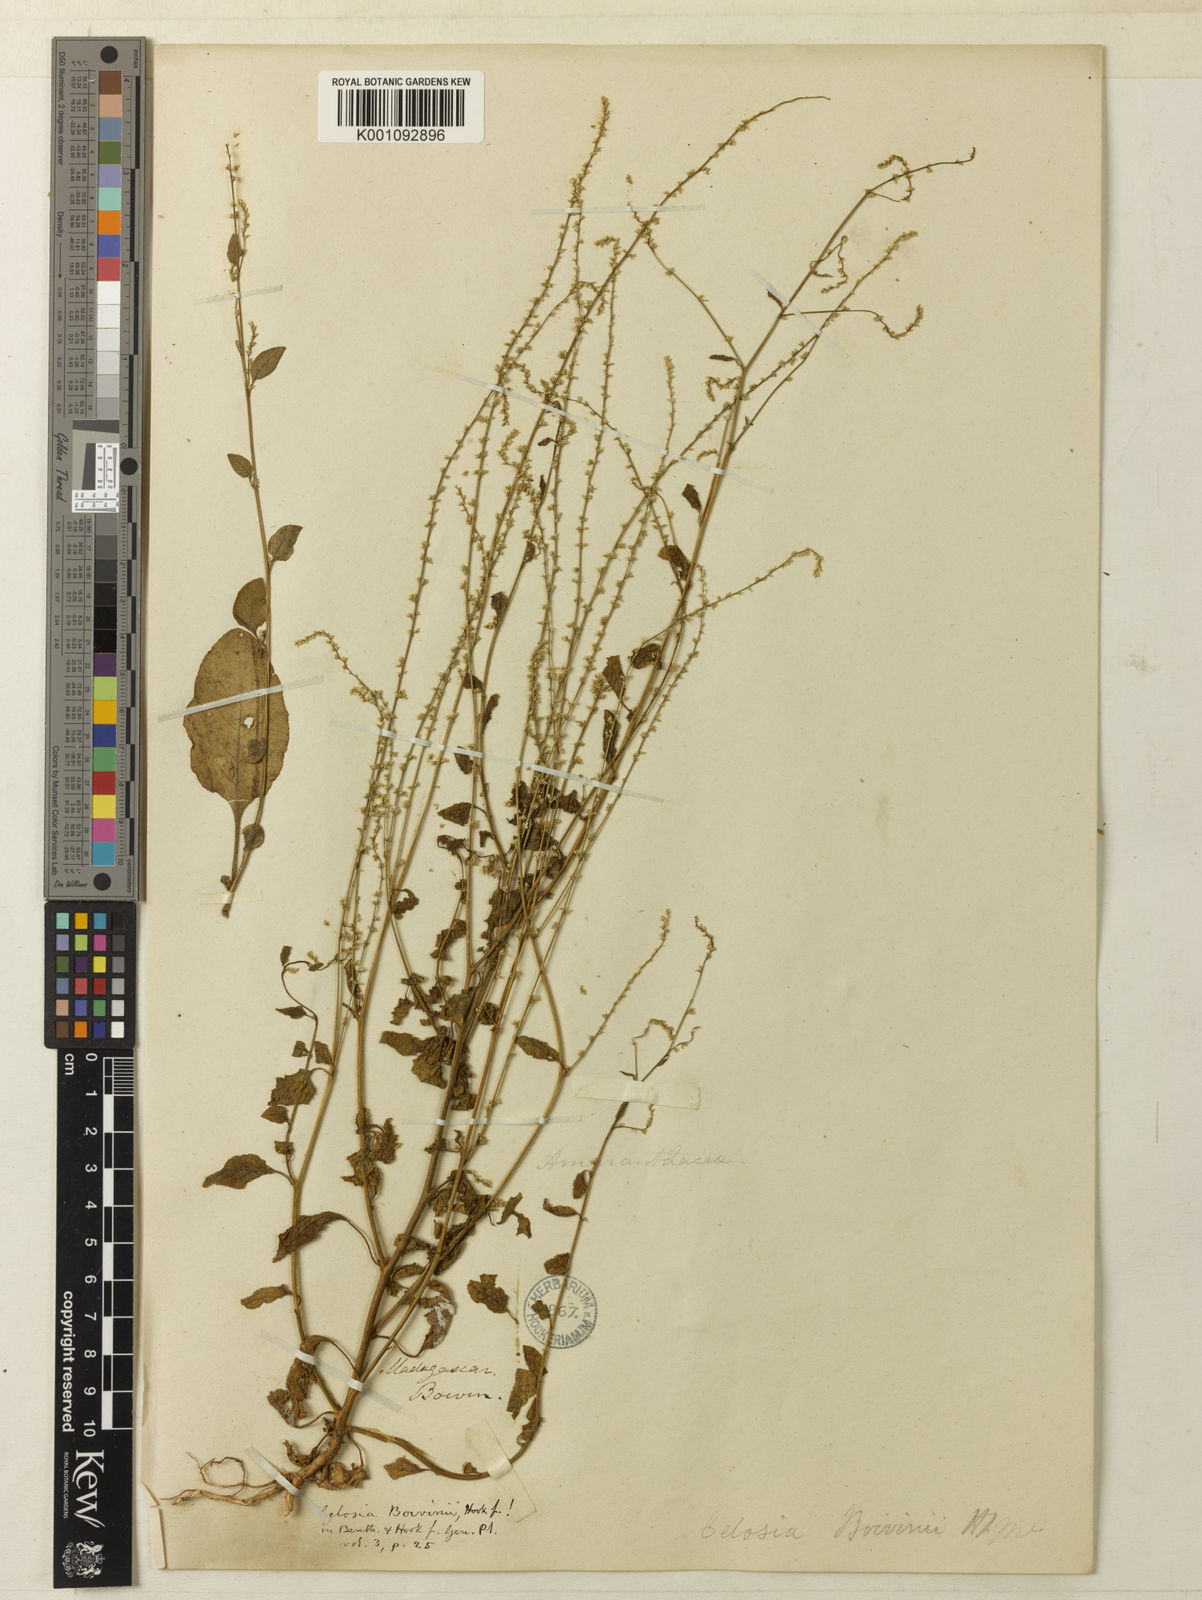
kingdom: Plantae
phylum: Tracheophyta
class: Magnoliopsida
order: Caryophyllales
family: Amaranthaceae
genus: Lagrezia
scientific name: Lagrezia boivinii
